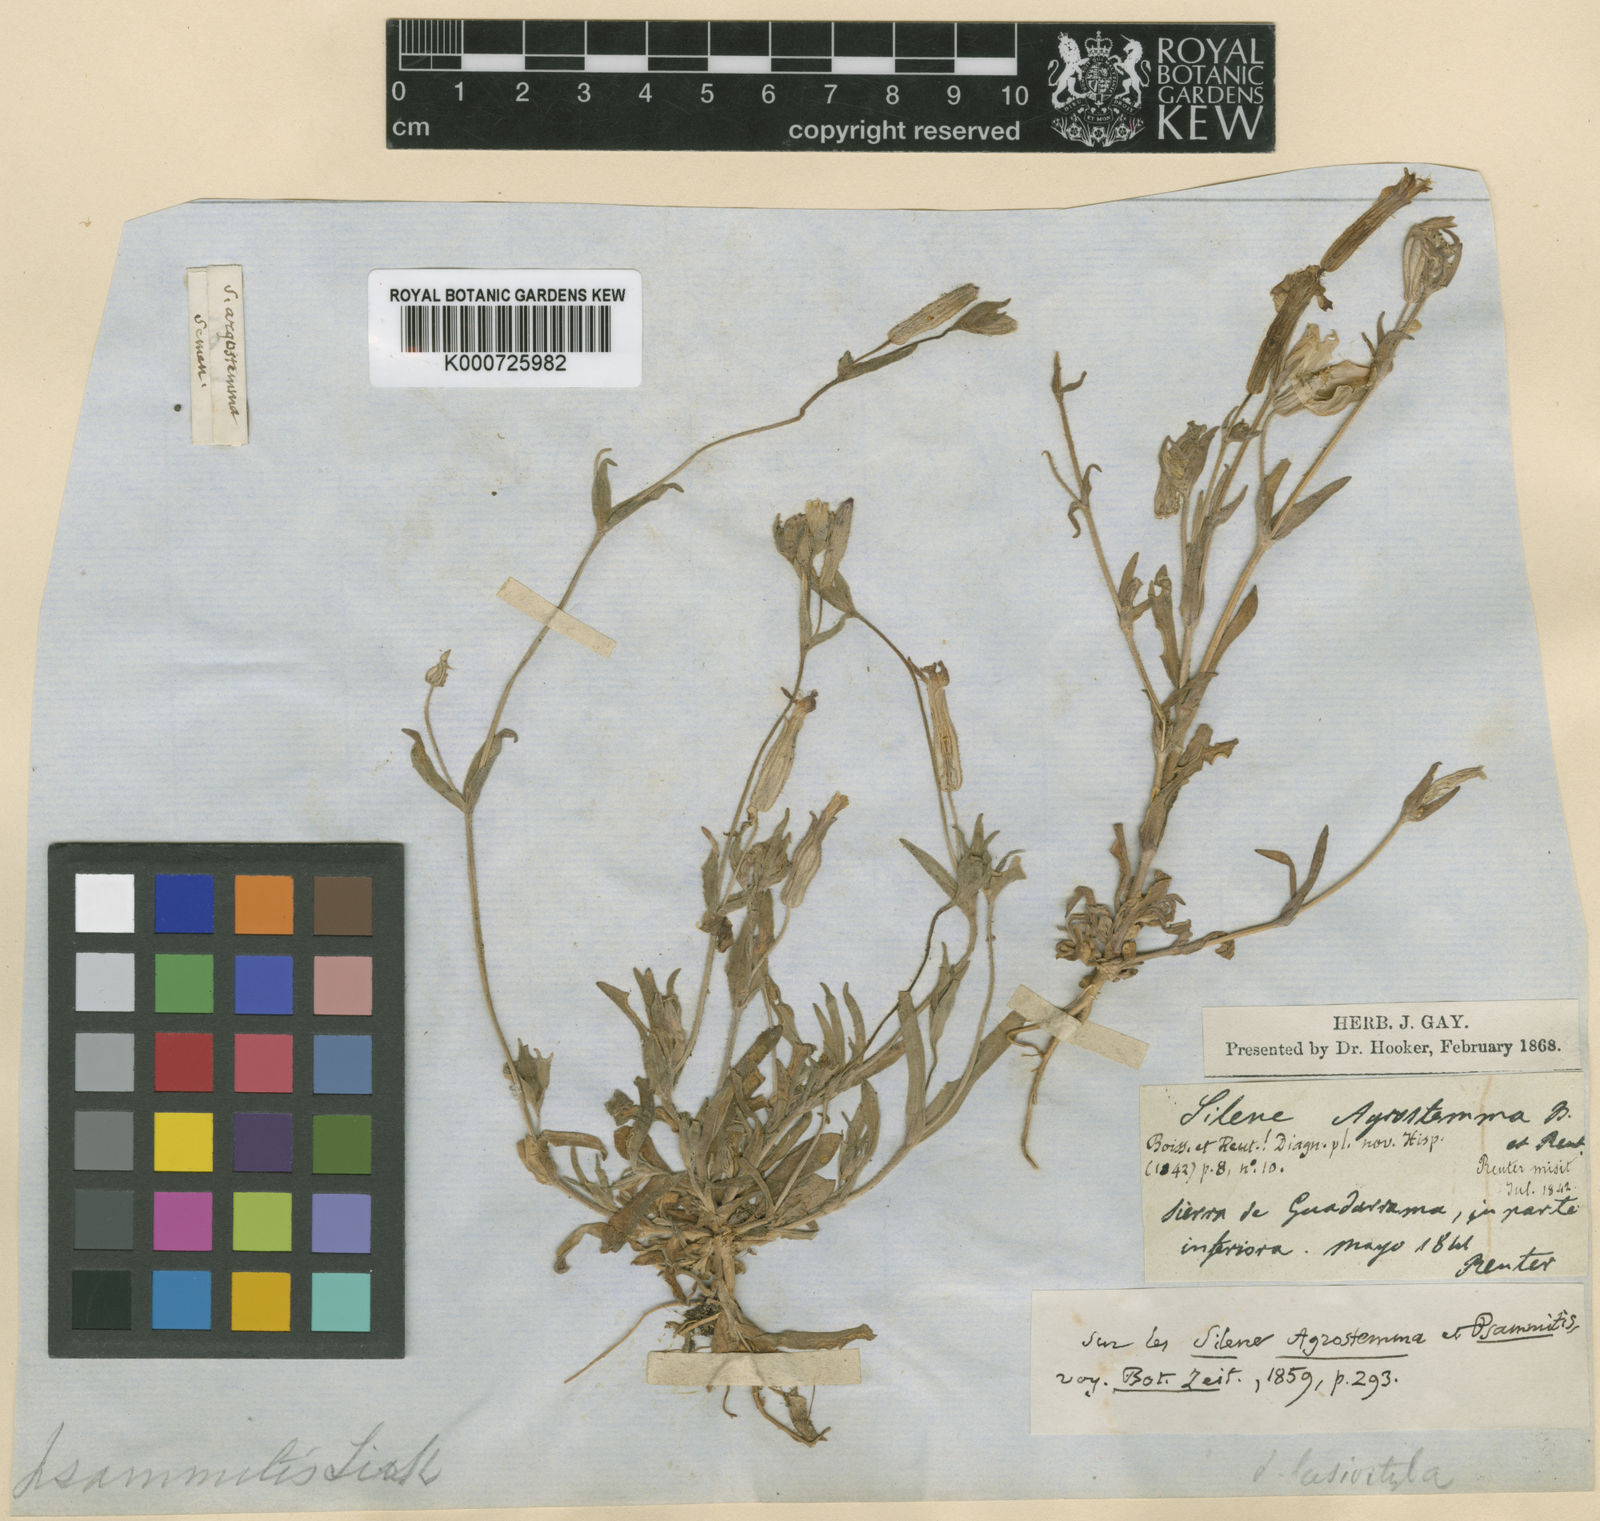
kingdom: Plantae
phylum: Tracheophyta
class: Magnoliopsida
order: Caryophyllales
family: Caryophyllaceae
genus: Silene
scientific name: Silene psammitis
